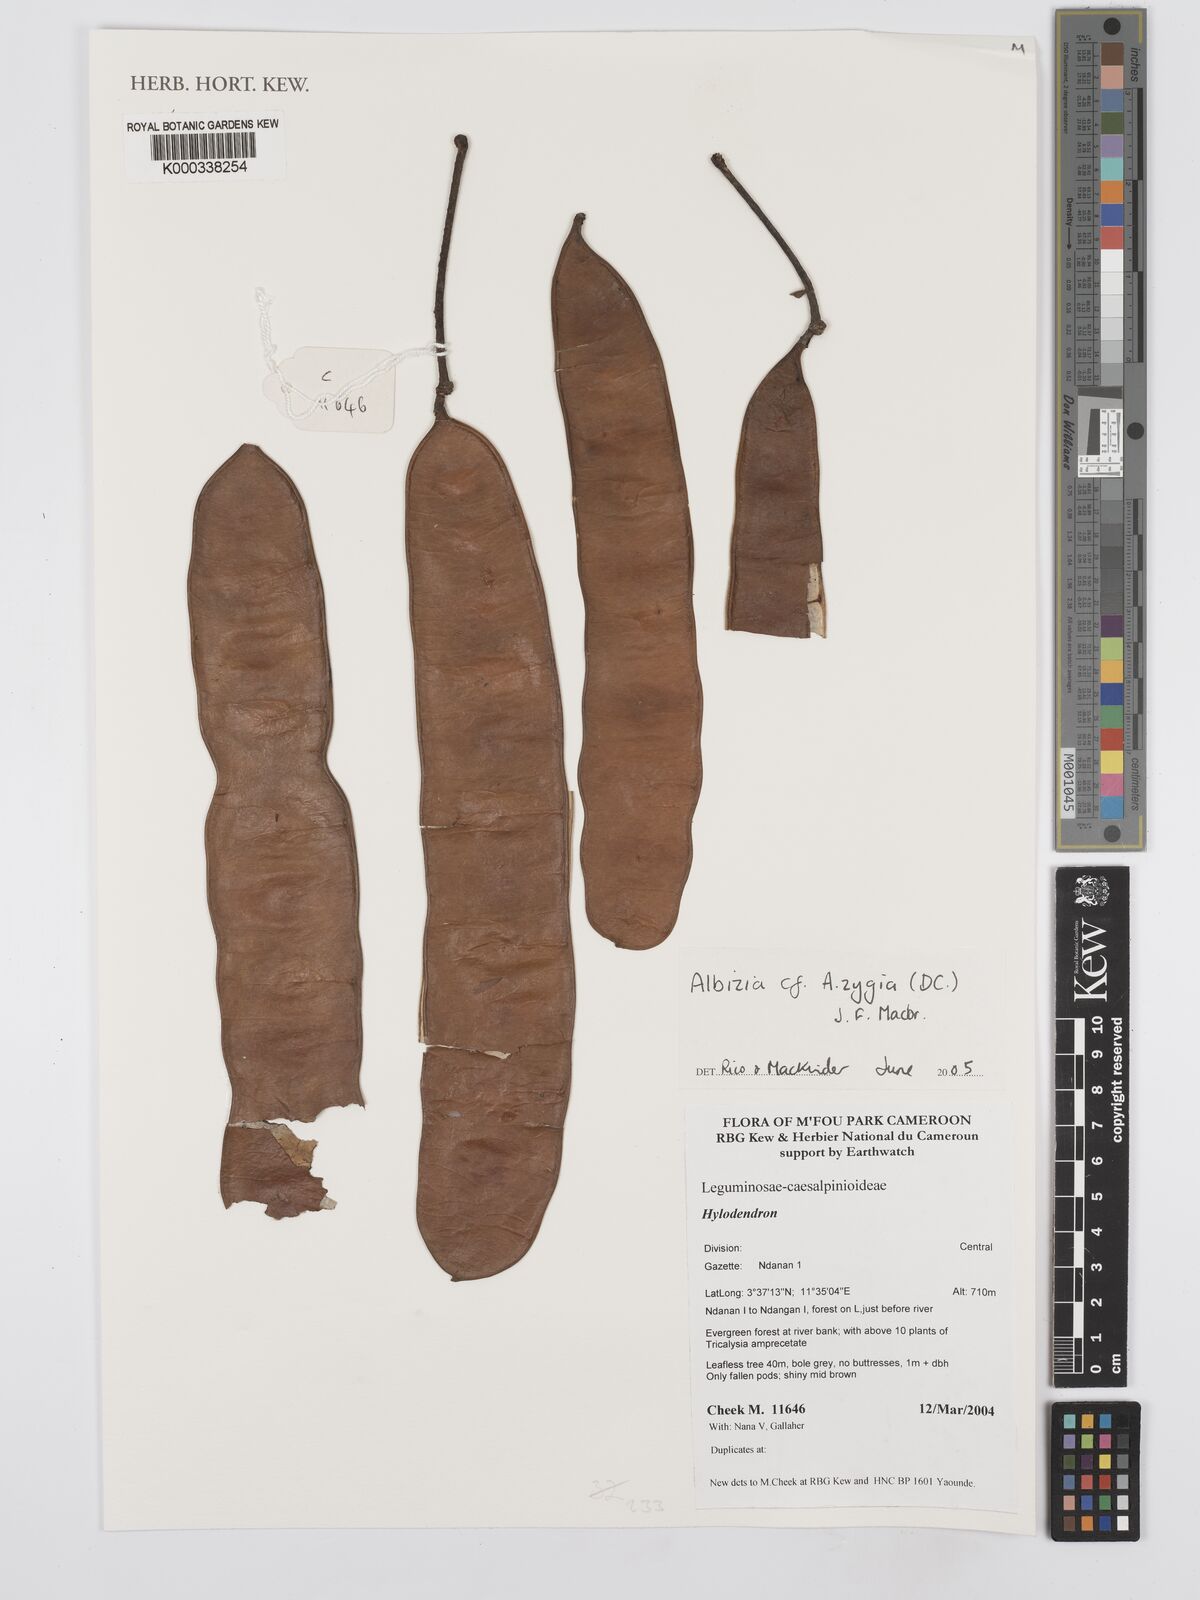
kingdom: Plantae
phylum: Tracheophyta
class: Magnoliopsida
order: Fabales
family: Fabaceae
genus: Albizia
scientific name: Albizia zygia
